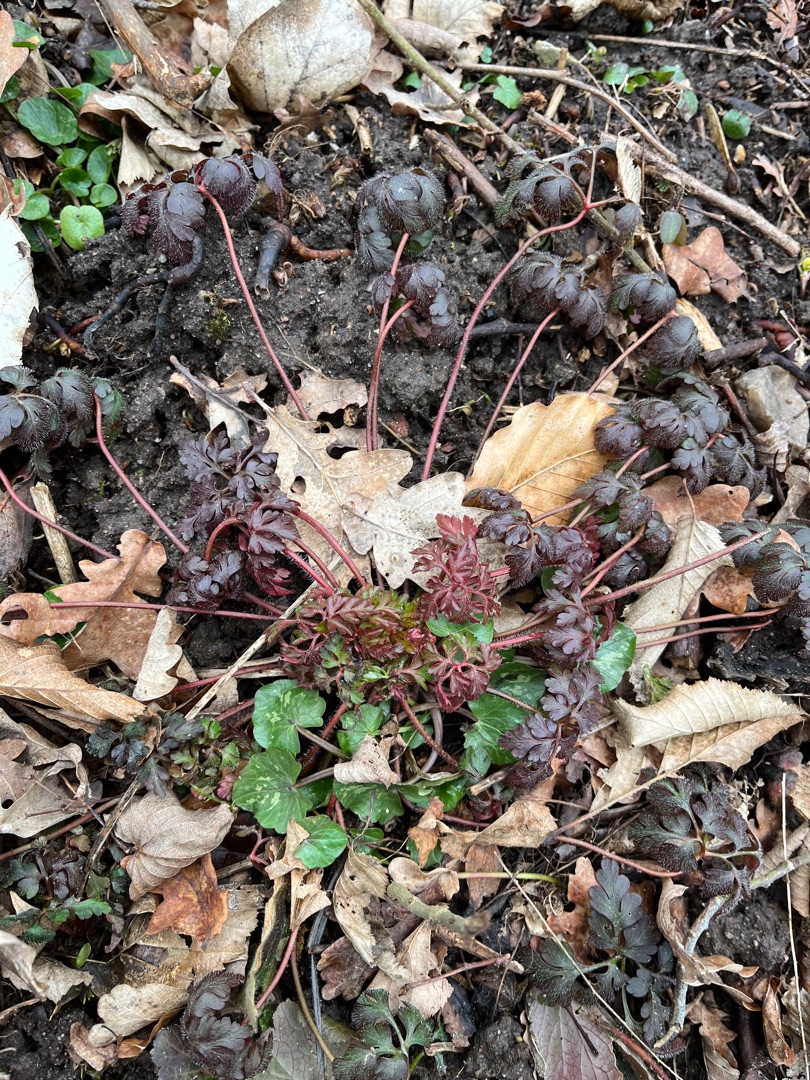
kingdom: Plantae
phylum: Tracheophyta
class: Magnoliopsida
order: Geraniales
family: Geraniaceae
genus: Geranium
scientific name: Geranium robertianum
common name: Stinkende storkenæb
